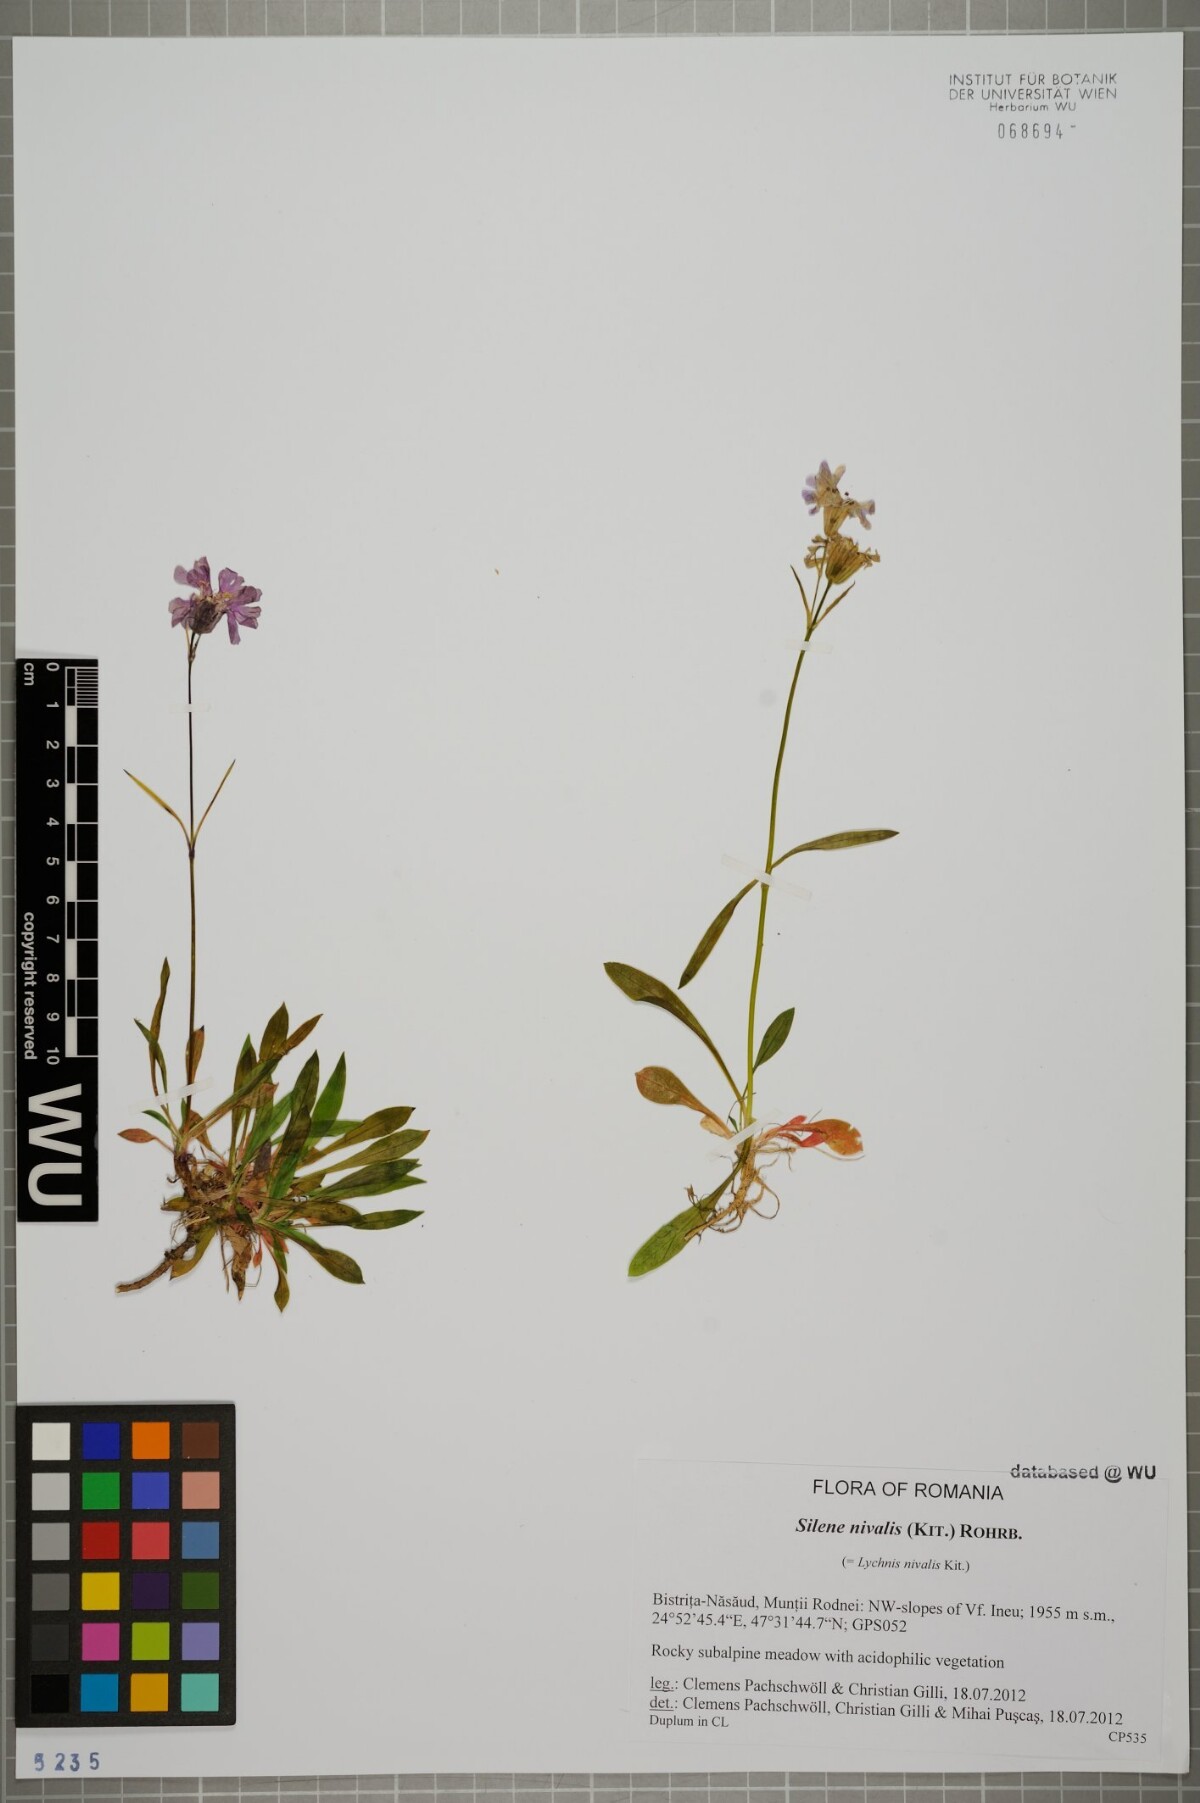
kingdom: Plantae
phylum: Tracheophyta
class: Magnoliopsida
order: Caryophyllales
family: Caryophyllaceae
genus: Silene
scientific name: Silene nivalis
